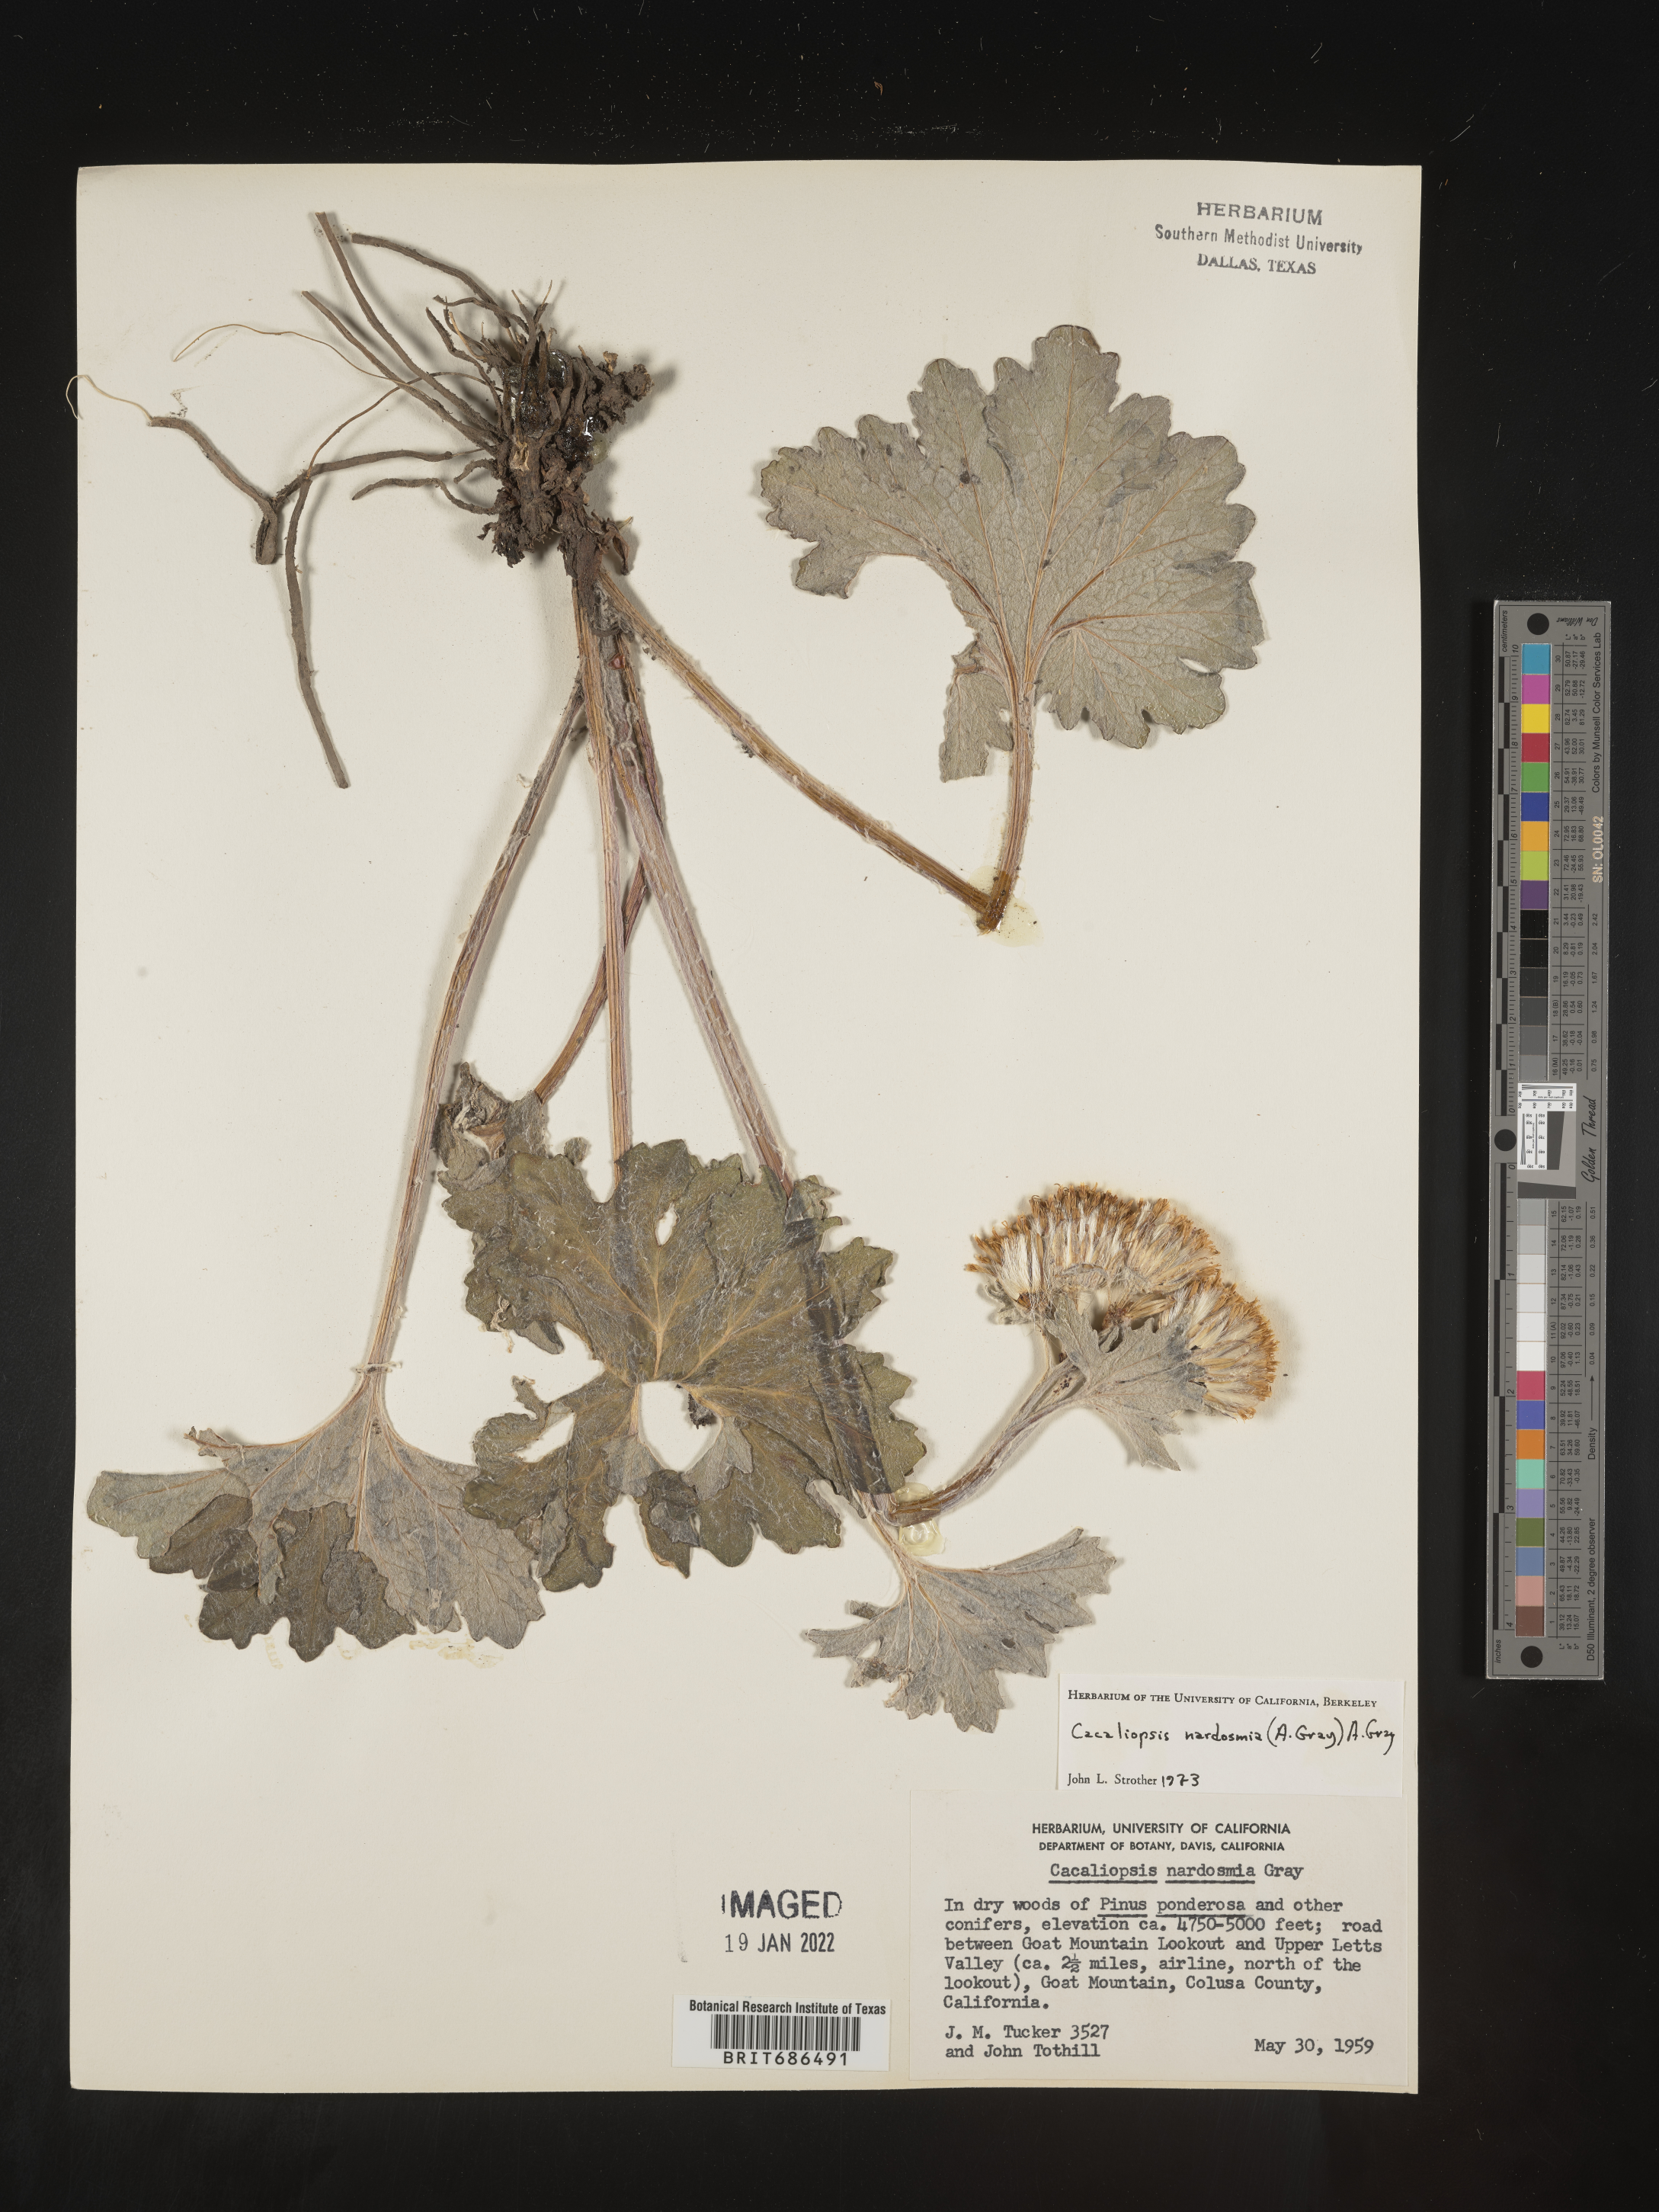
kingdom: Plantae
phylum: Tracheophyta
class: Magnoliopsida
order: Asterales
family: Asteraceae
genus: Cacaliopsis
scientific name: Cacaliopsis
